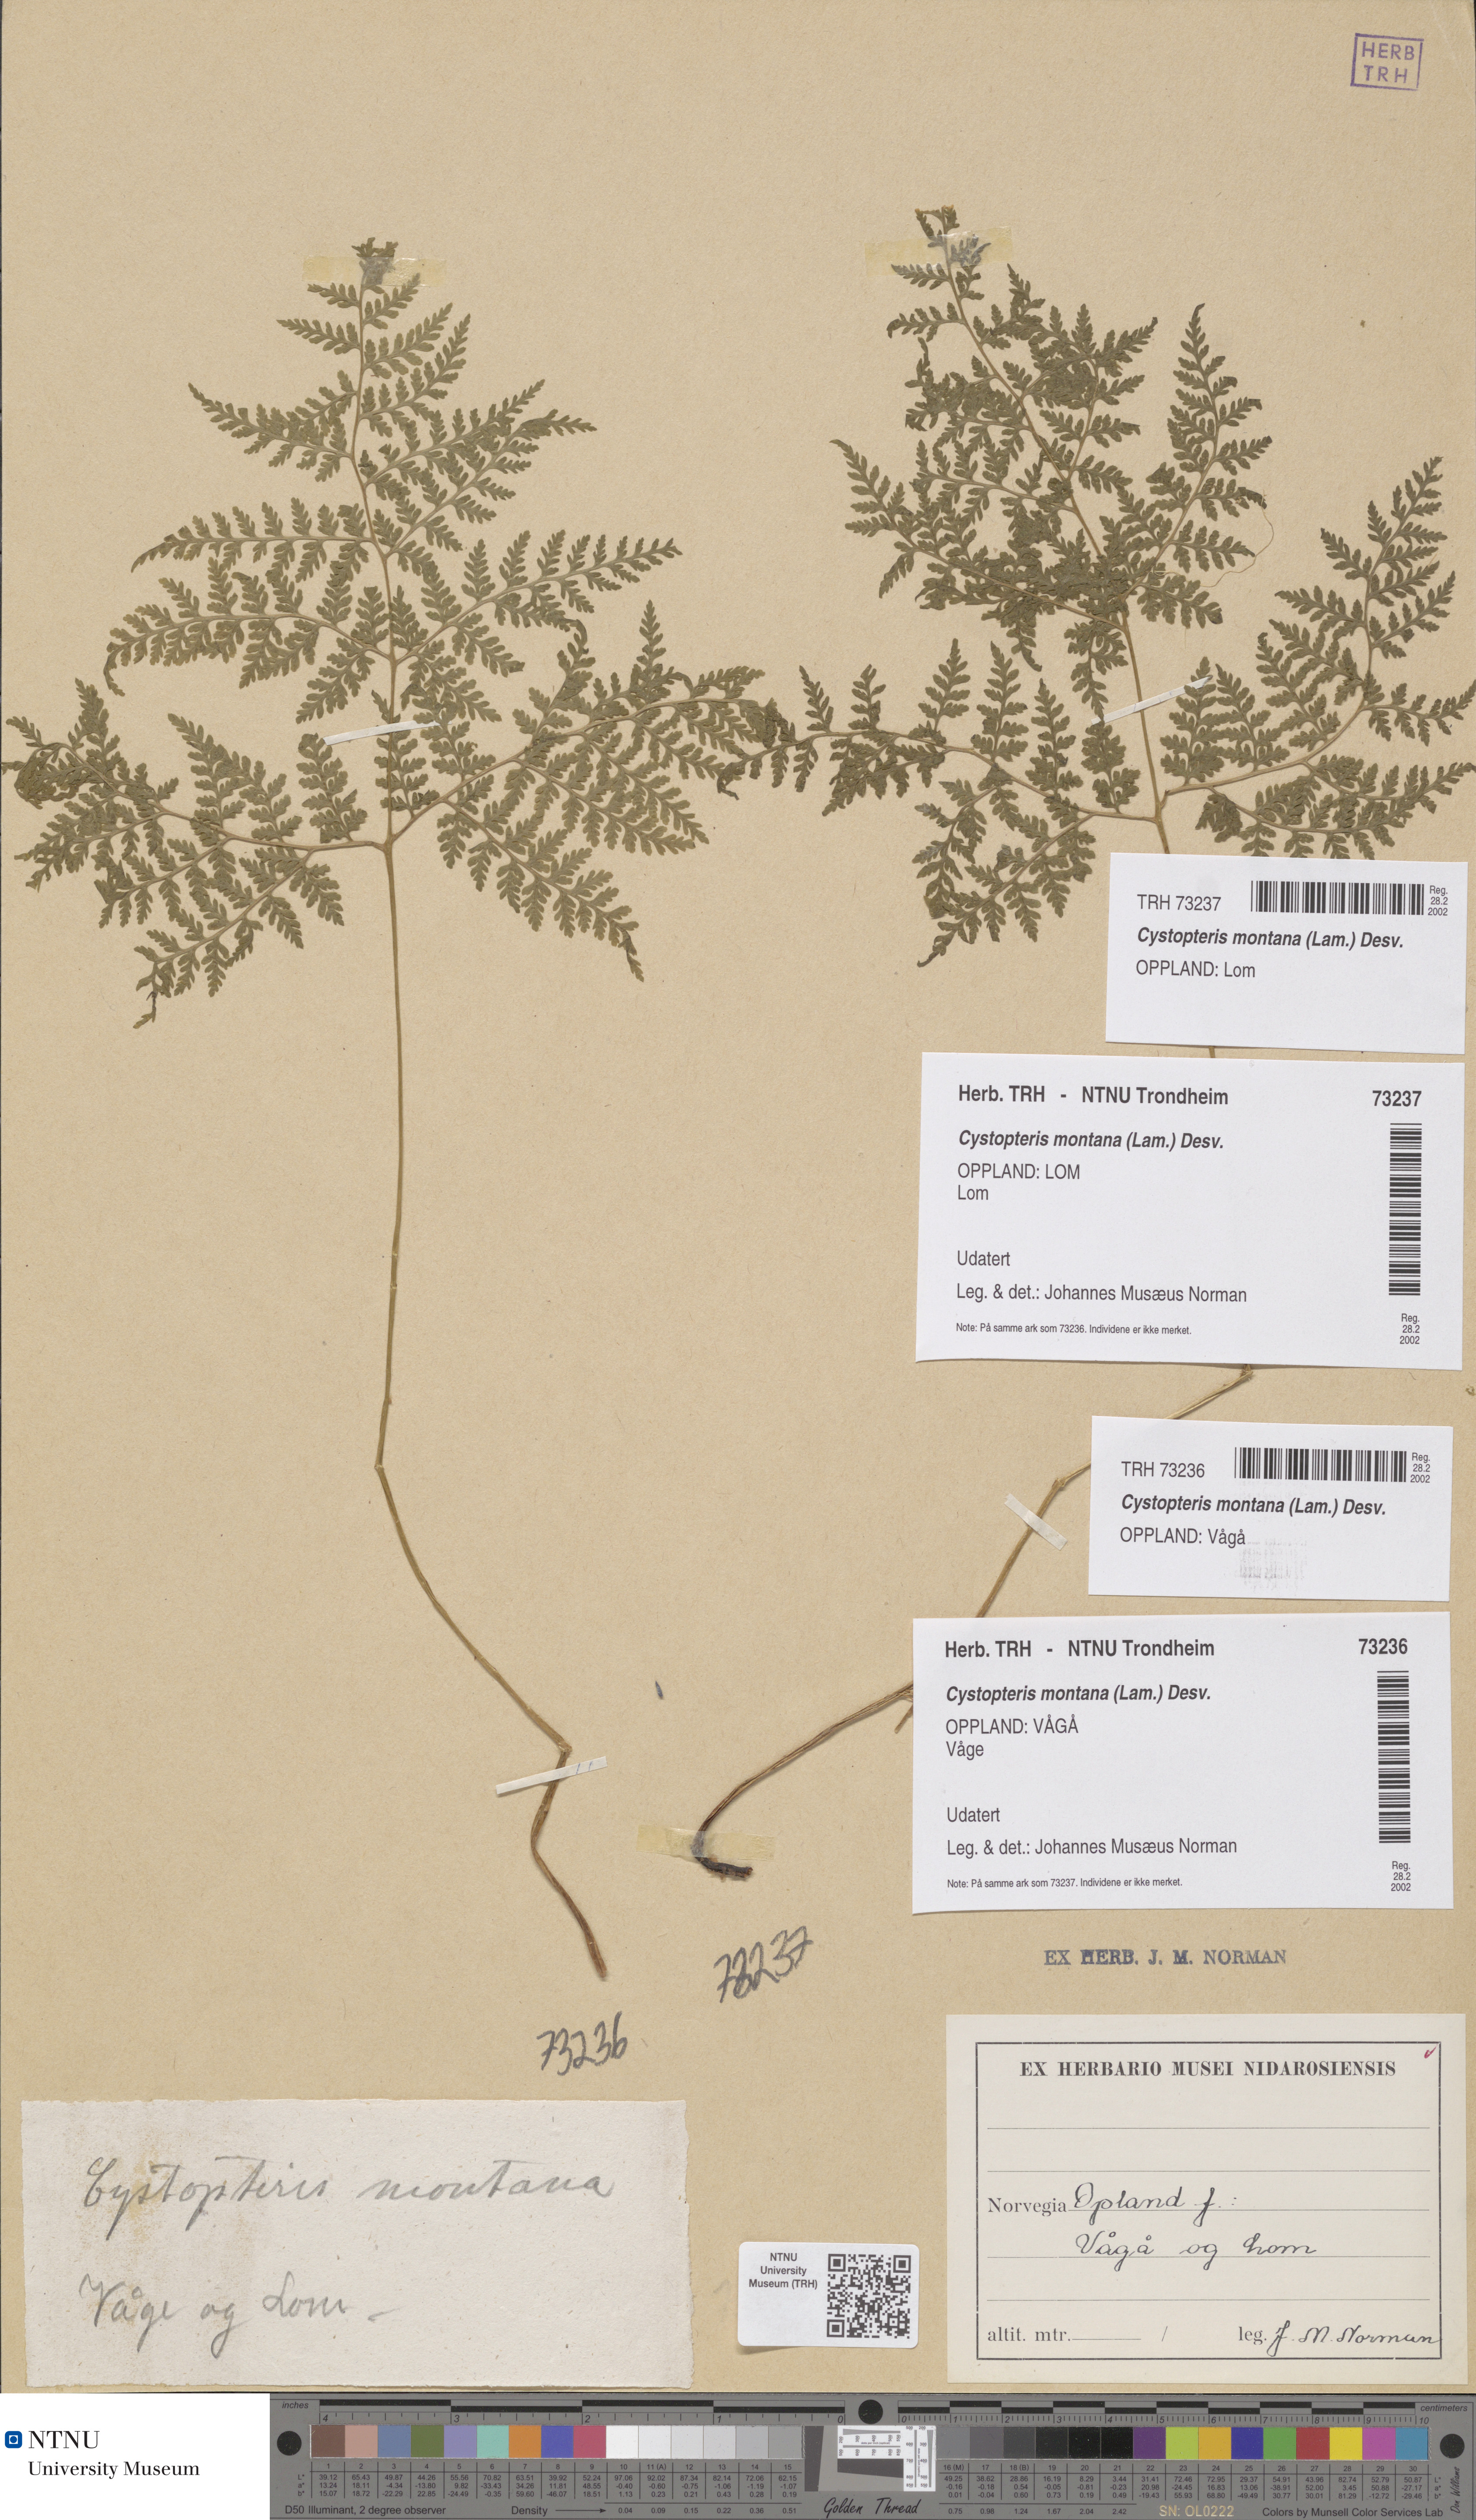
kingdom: Plantae
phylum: Tracheophyta
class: Polypodiopsida
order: Polypodiales
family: Cystopteridaceae
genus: Cystopteris
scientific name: Cystopteris montana
